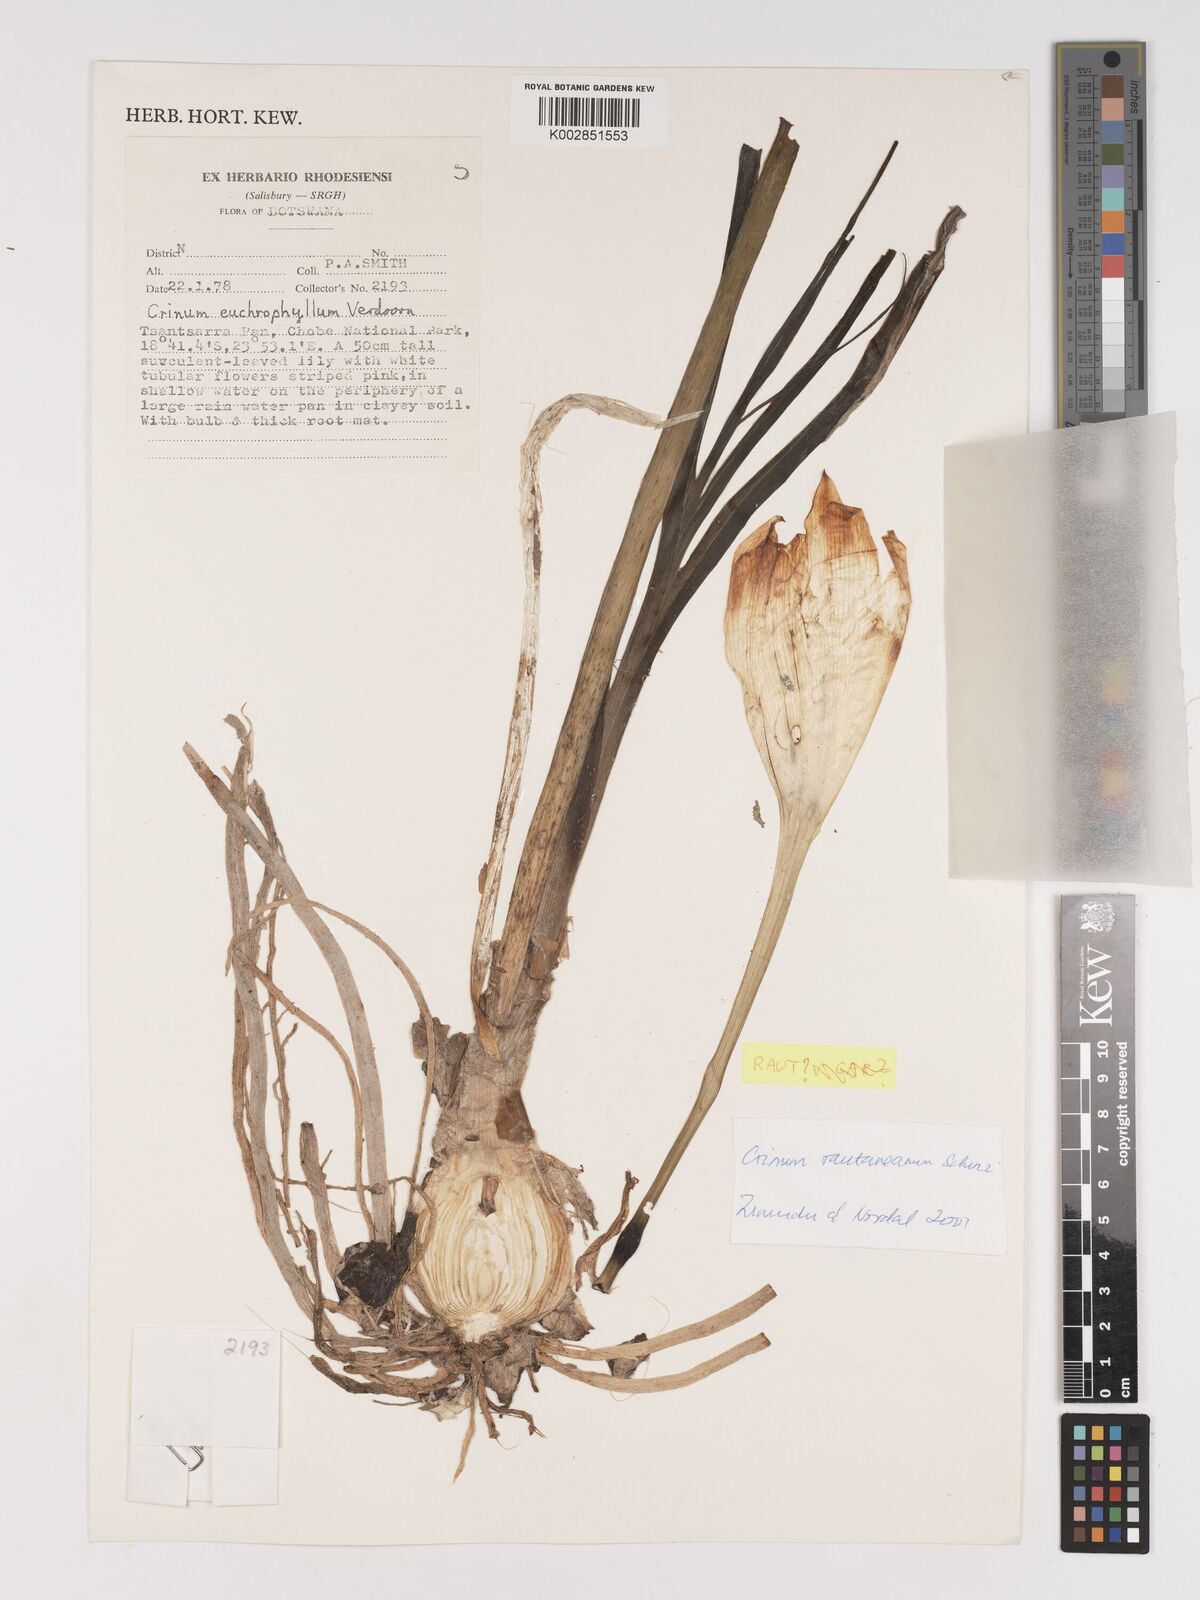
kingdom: Plantae
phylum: Tracheophyta
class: Liliopsida
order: Asparagales
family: Amaryllidaceae
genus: Crinum
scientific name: Crinum rautanenianum
